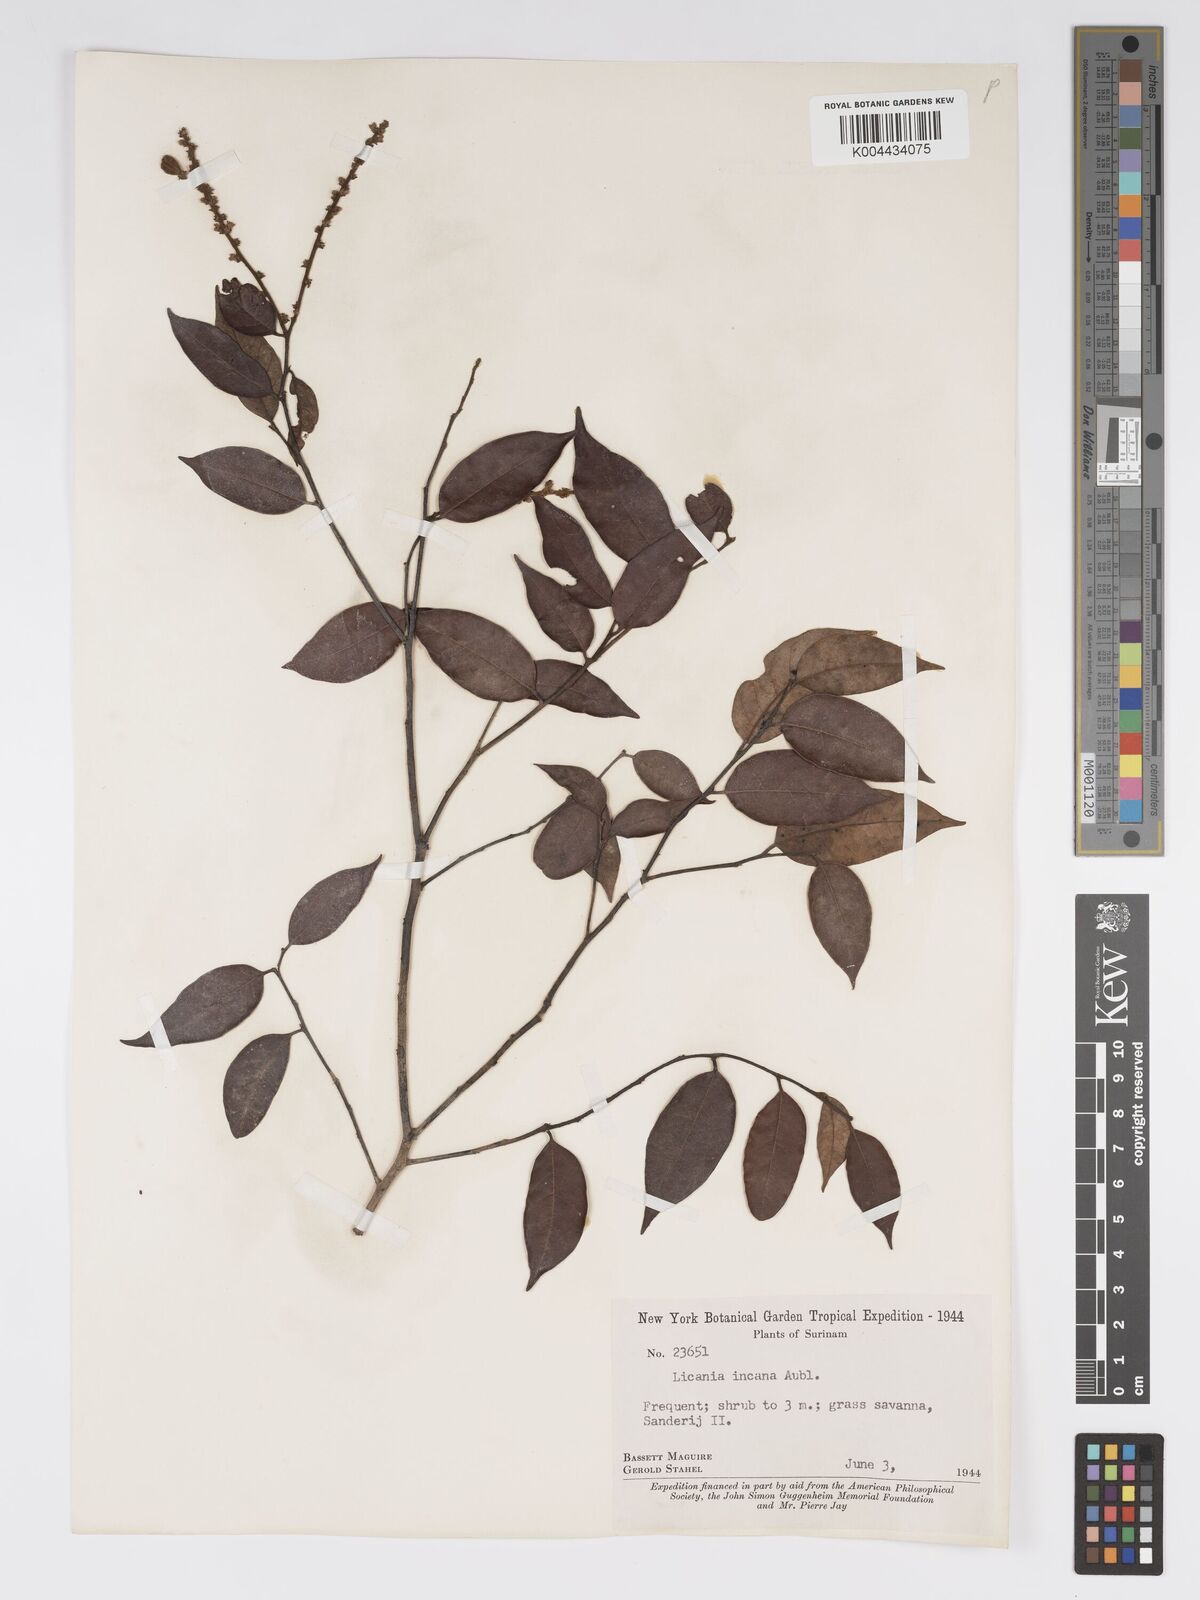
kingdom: Plantae
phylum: Tracheophyta
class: Magnoliopsida
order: Malpighiales
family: Chrysobalanaceae
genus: Licania
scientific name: Licania incana
